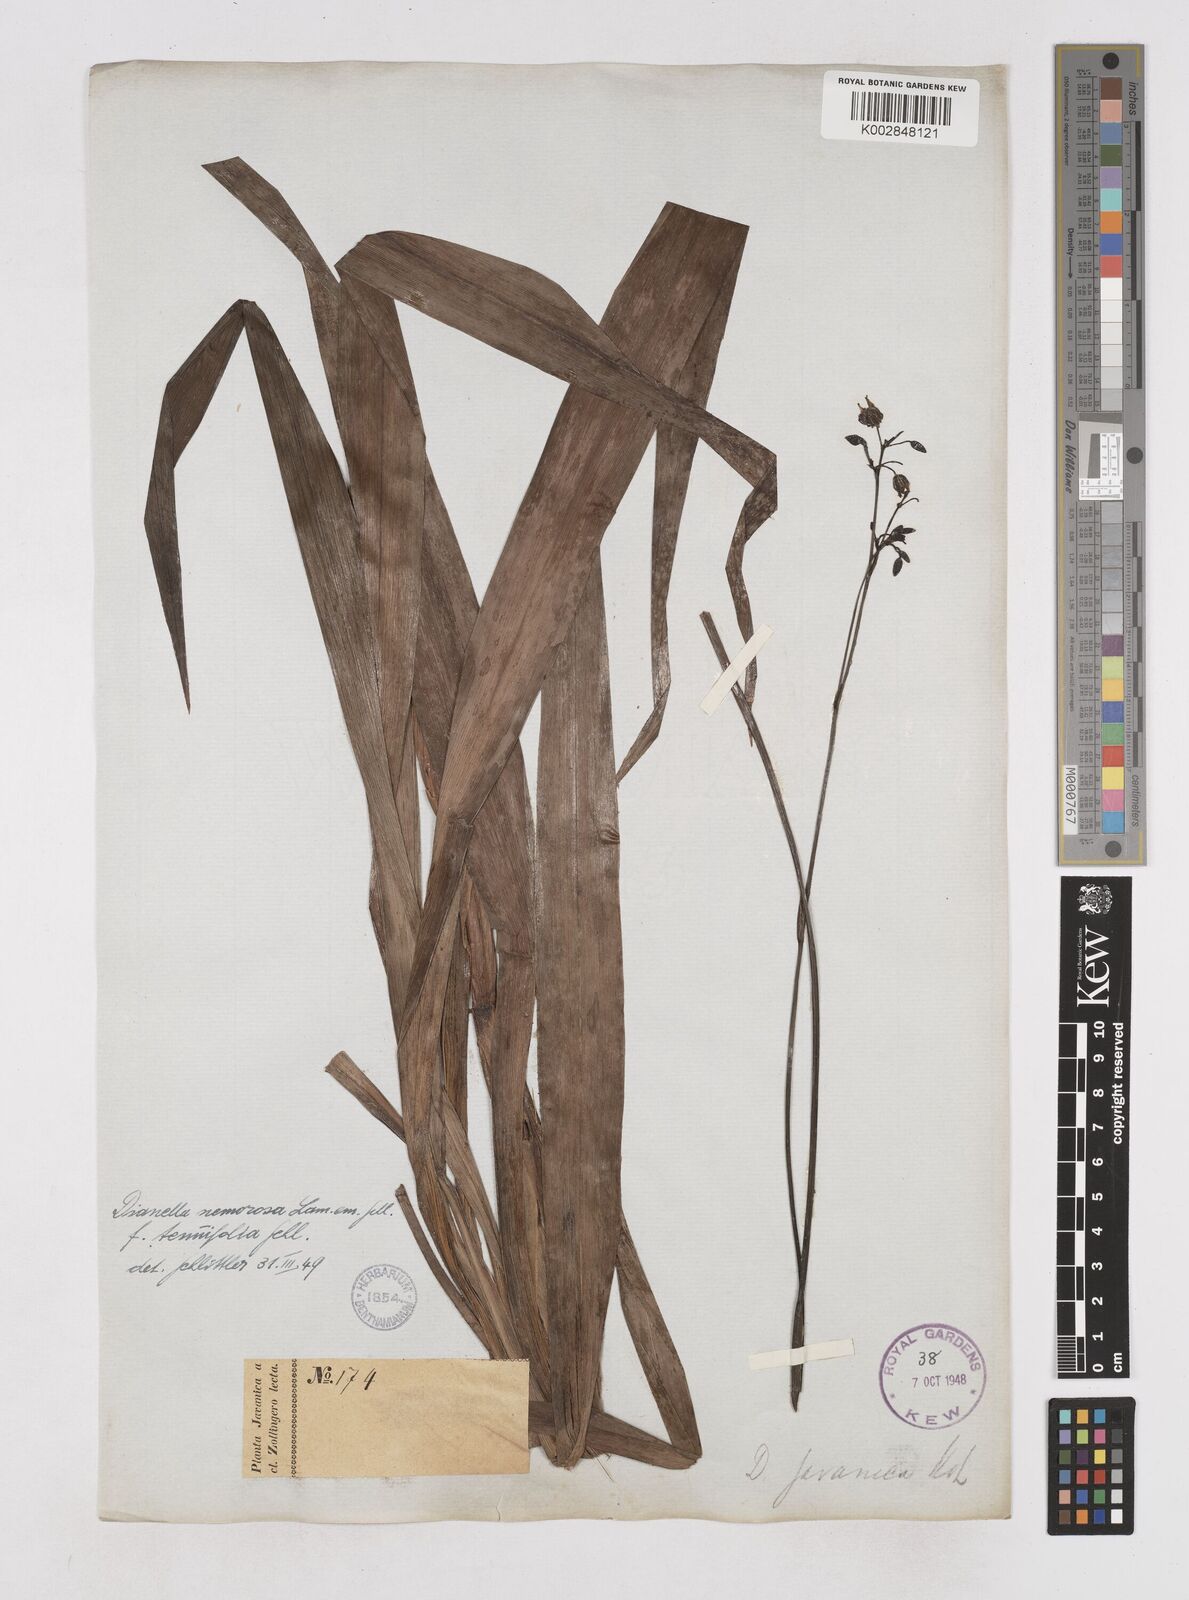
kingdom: Plantae
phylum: Tracheophyta
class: Liliopsida
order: Asparagales
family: Asphodelaceae
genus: Dianella
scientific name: Dianella ensifolia
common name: New zealand lilyplant
